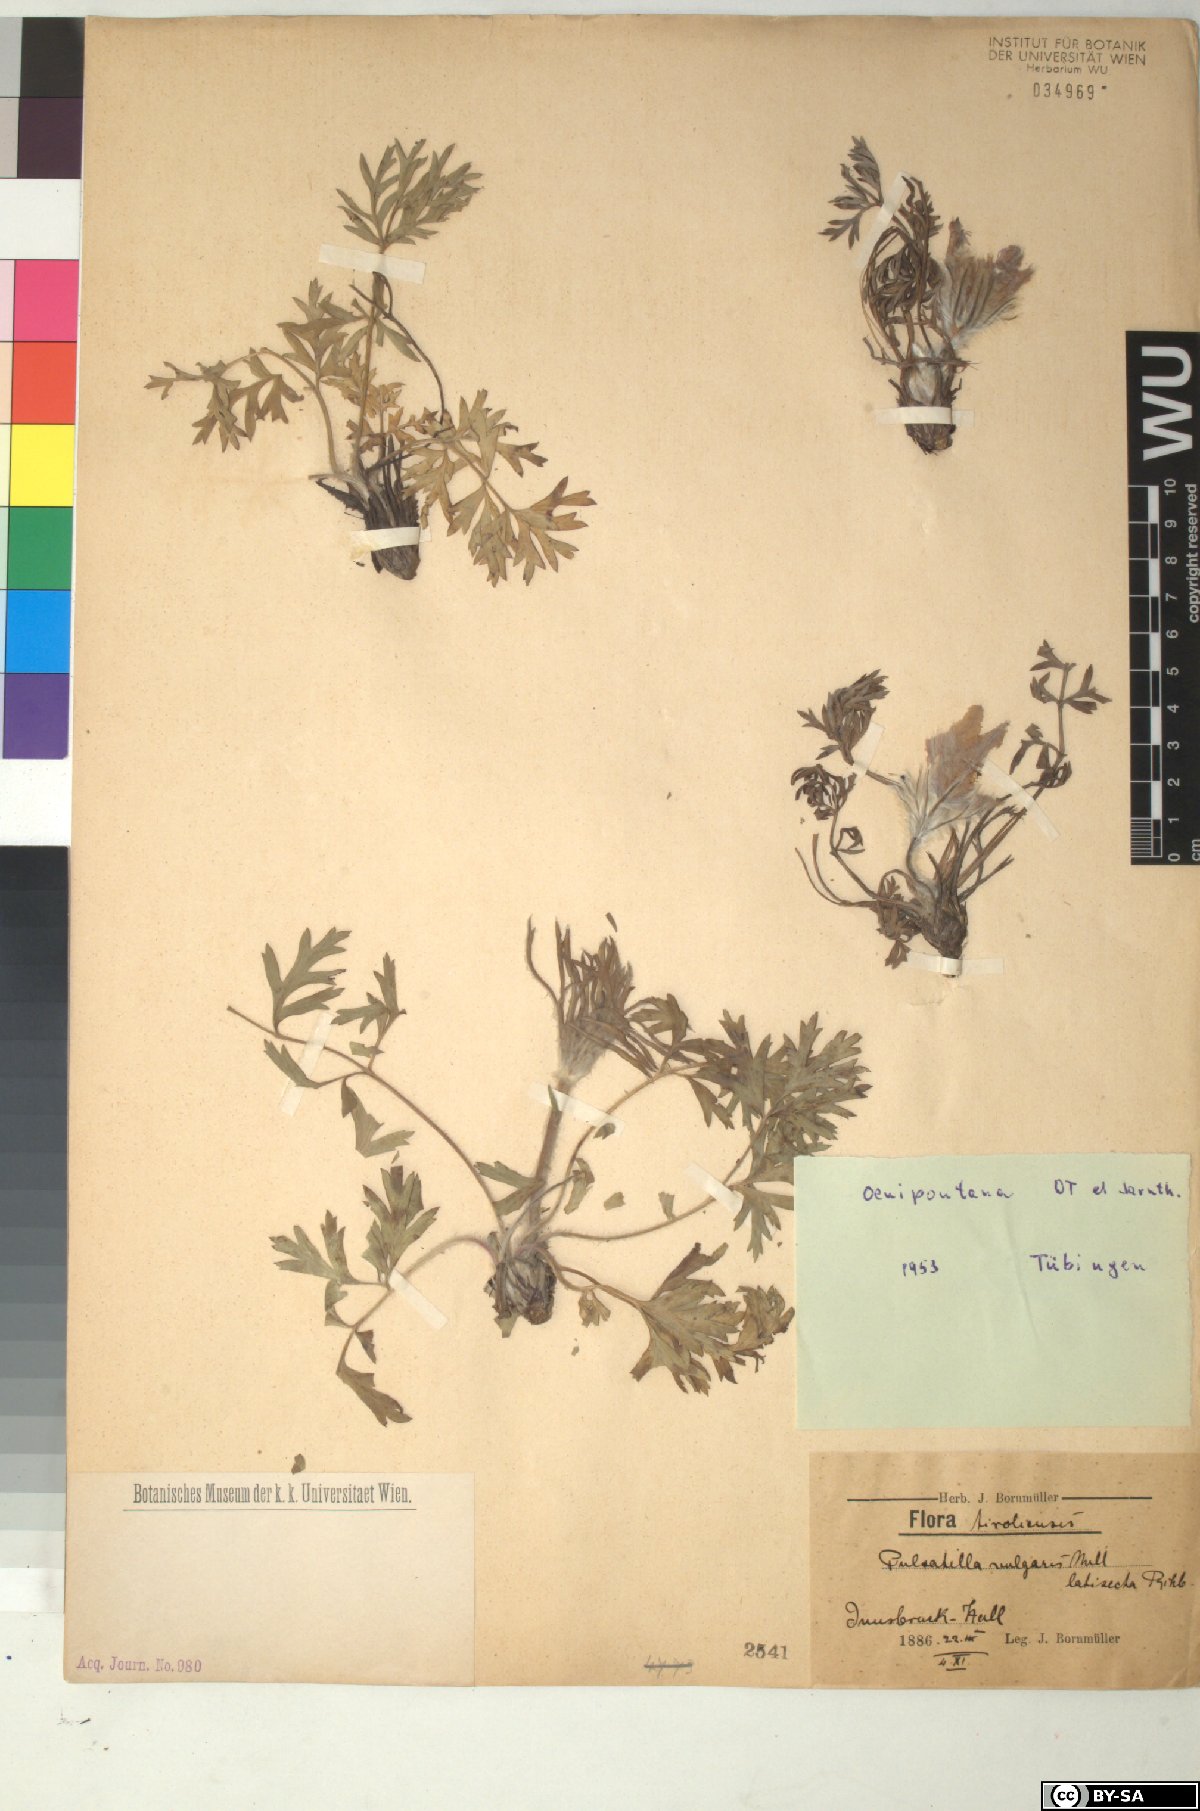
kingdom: Plantae
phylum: Tracheophyta
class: Magnoliopsida
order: Ranunculales
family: Ranunculaceae
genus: Pulsatilla
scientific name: Pulsatilla vulgaris
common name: Pasqueflower
